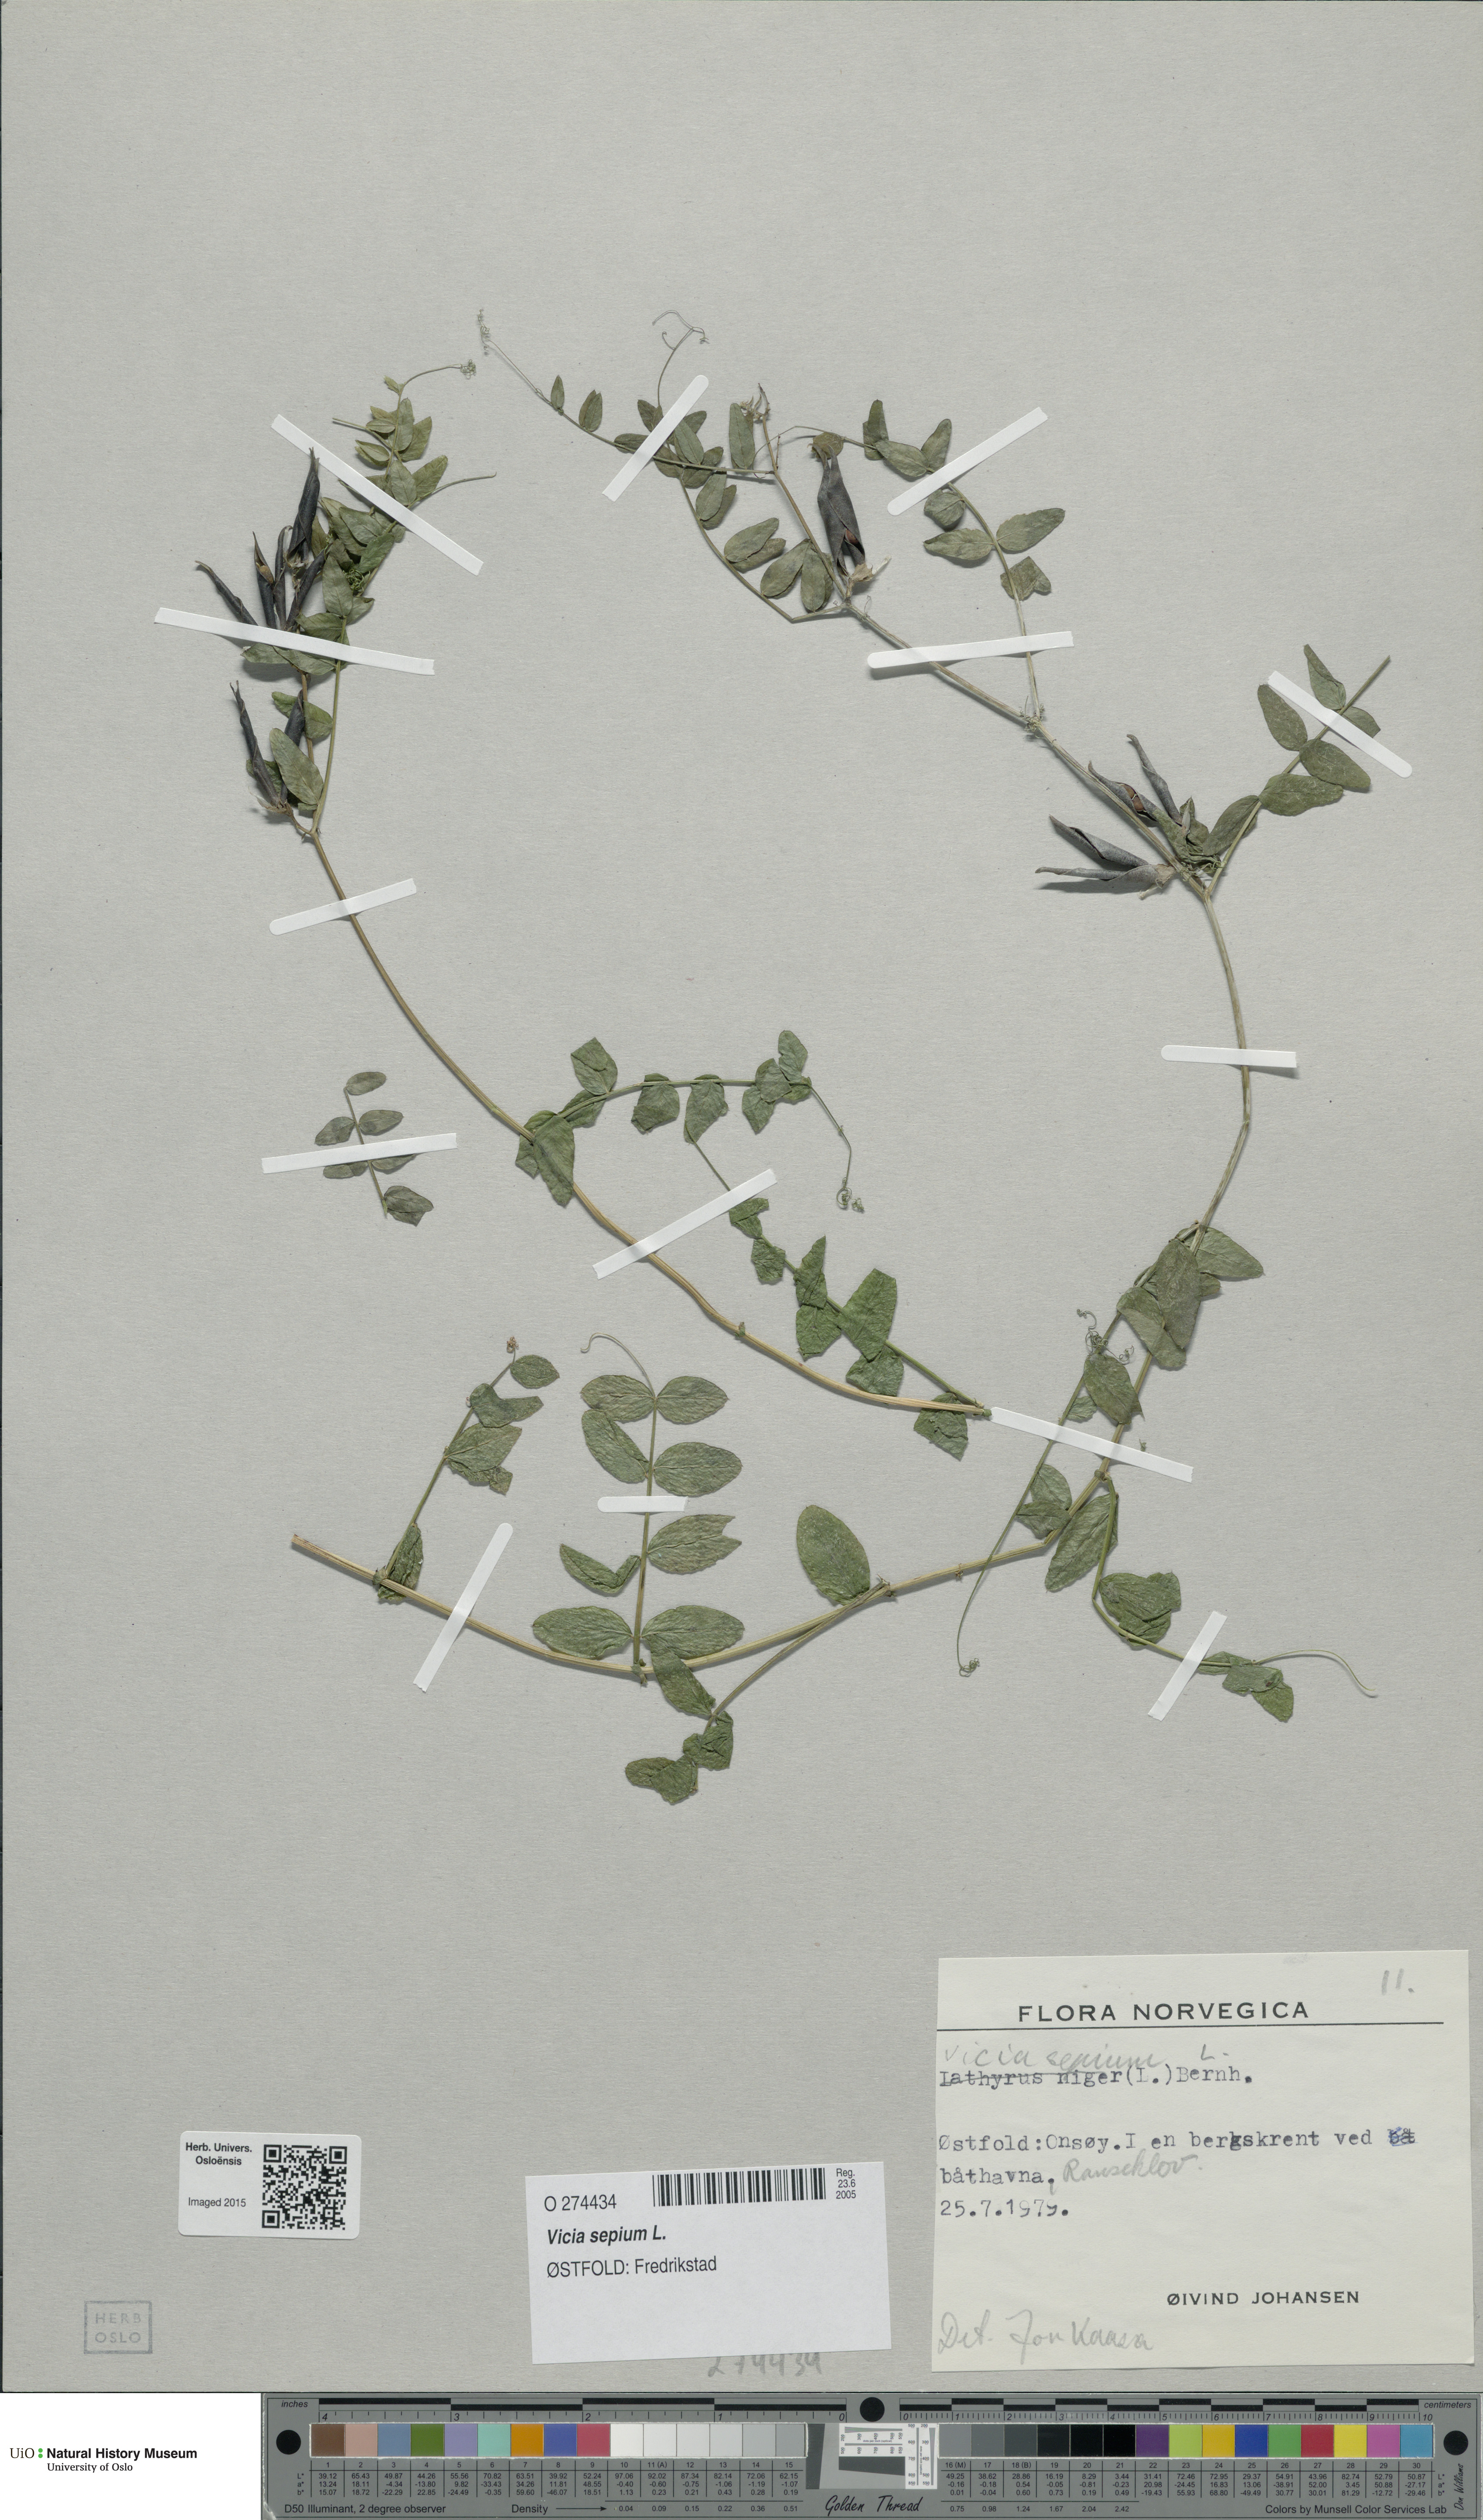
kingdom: Plantae
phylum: Tracheophyta
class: Magnoliopsida
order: Fabales
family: Fabaceae
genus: Vicia
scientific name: Vicia sepium
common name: Bush vetch
